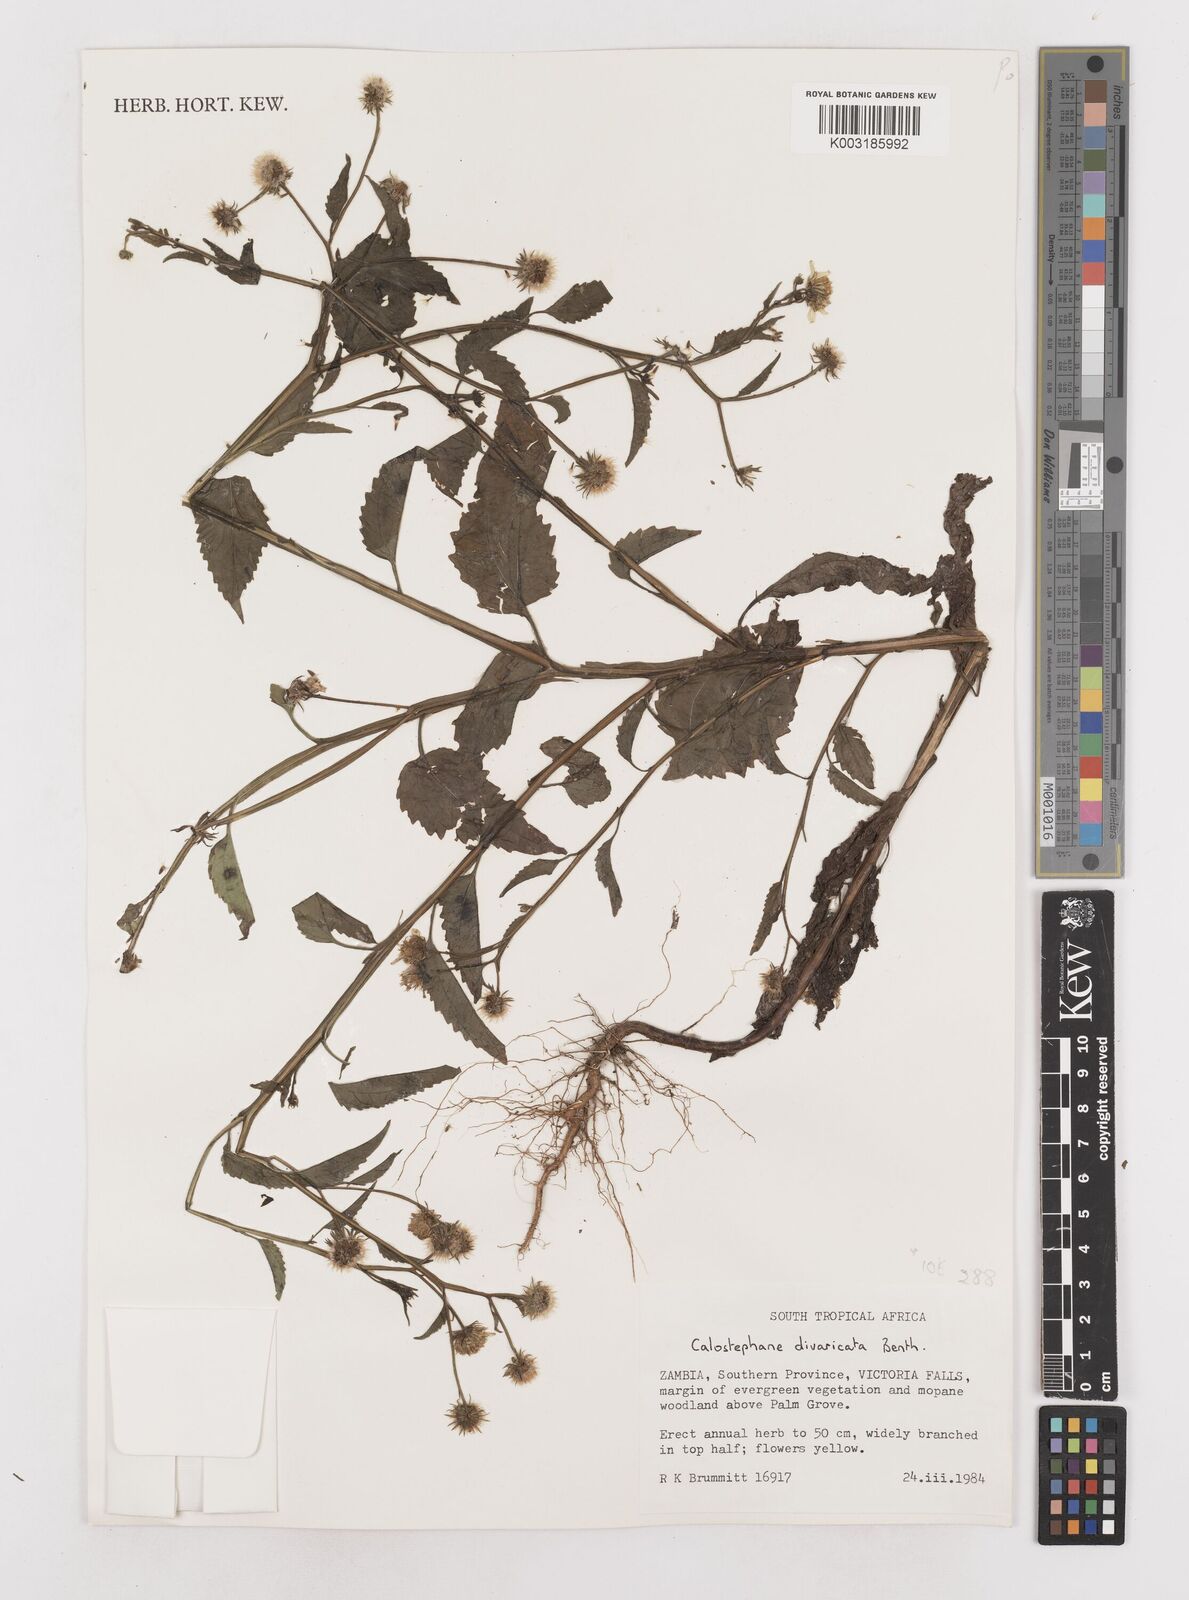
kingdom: Plantae
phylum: Tracheophyta
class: Magnoliopsida
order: Asterales
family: Asteraceae
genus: Calostephane
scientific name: Calostephane divaricata
